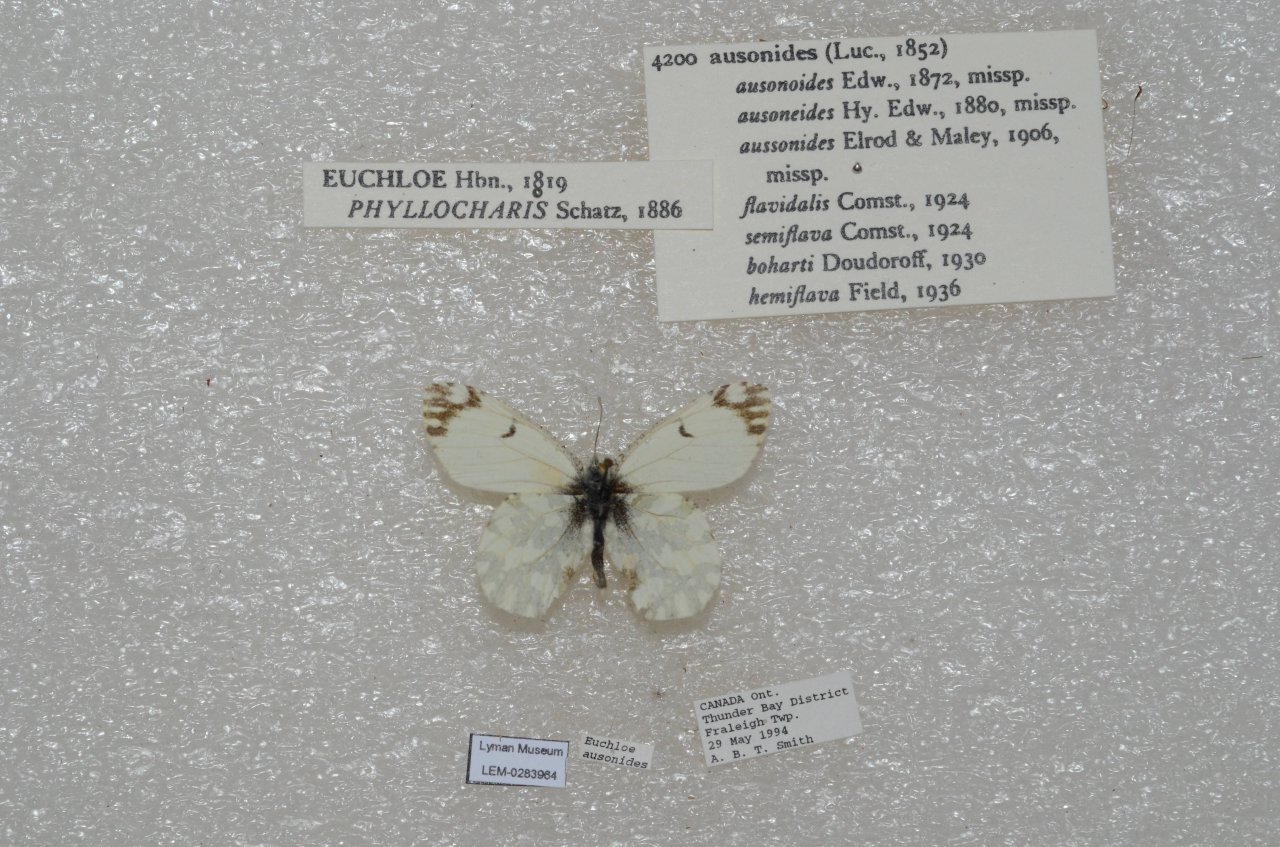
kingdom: Animalia
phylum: Arthropoda
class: Insecta
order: Lepidoptera
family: Pieridae
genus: Euchloe
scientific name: Euchloe ausonides
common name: Large Marble
